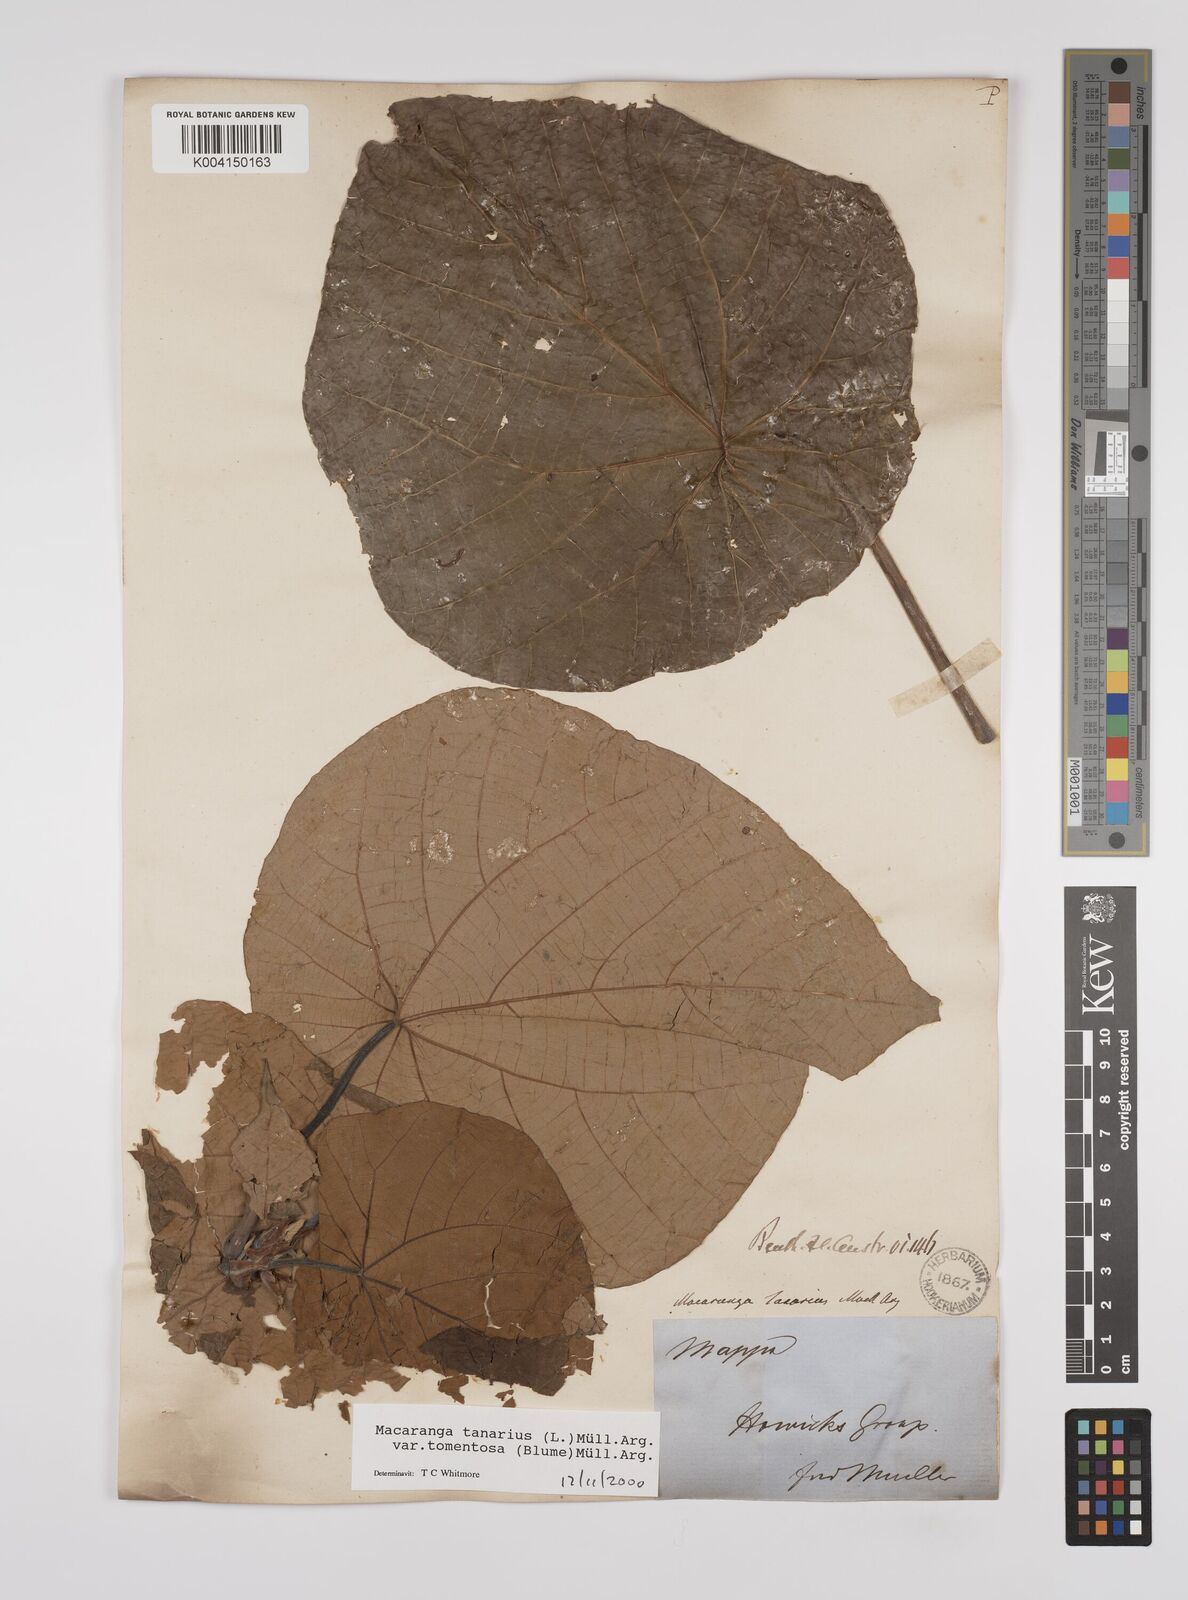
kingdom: Plantae
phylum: Tracheophyta
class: Magnoliopsida
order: Malpighiales
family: Euphorbiaceae
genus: Macaranga
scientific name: Macaranga tanarius
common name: Parasol leaf tree
